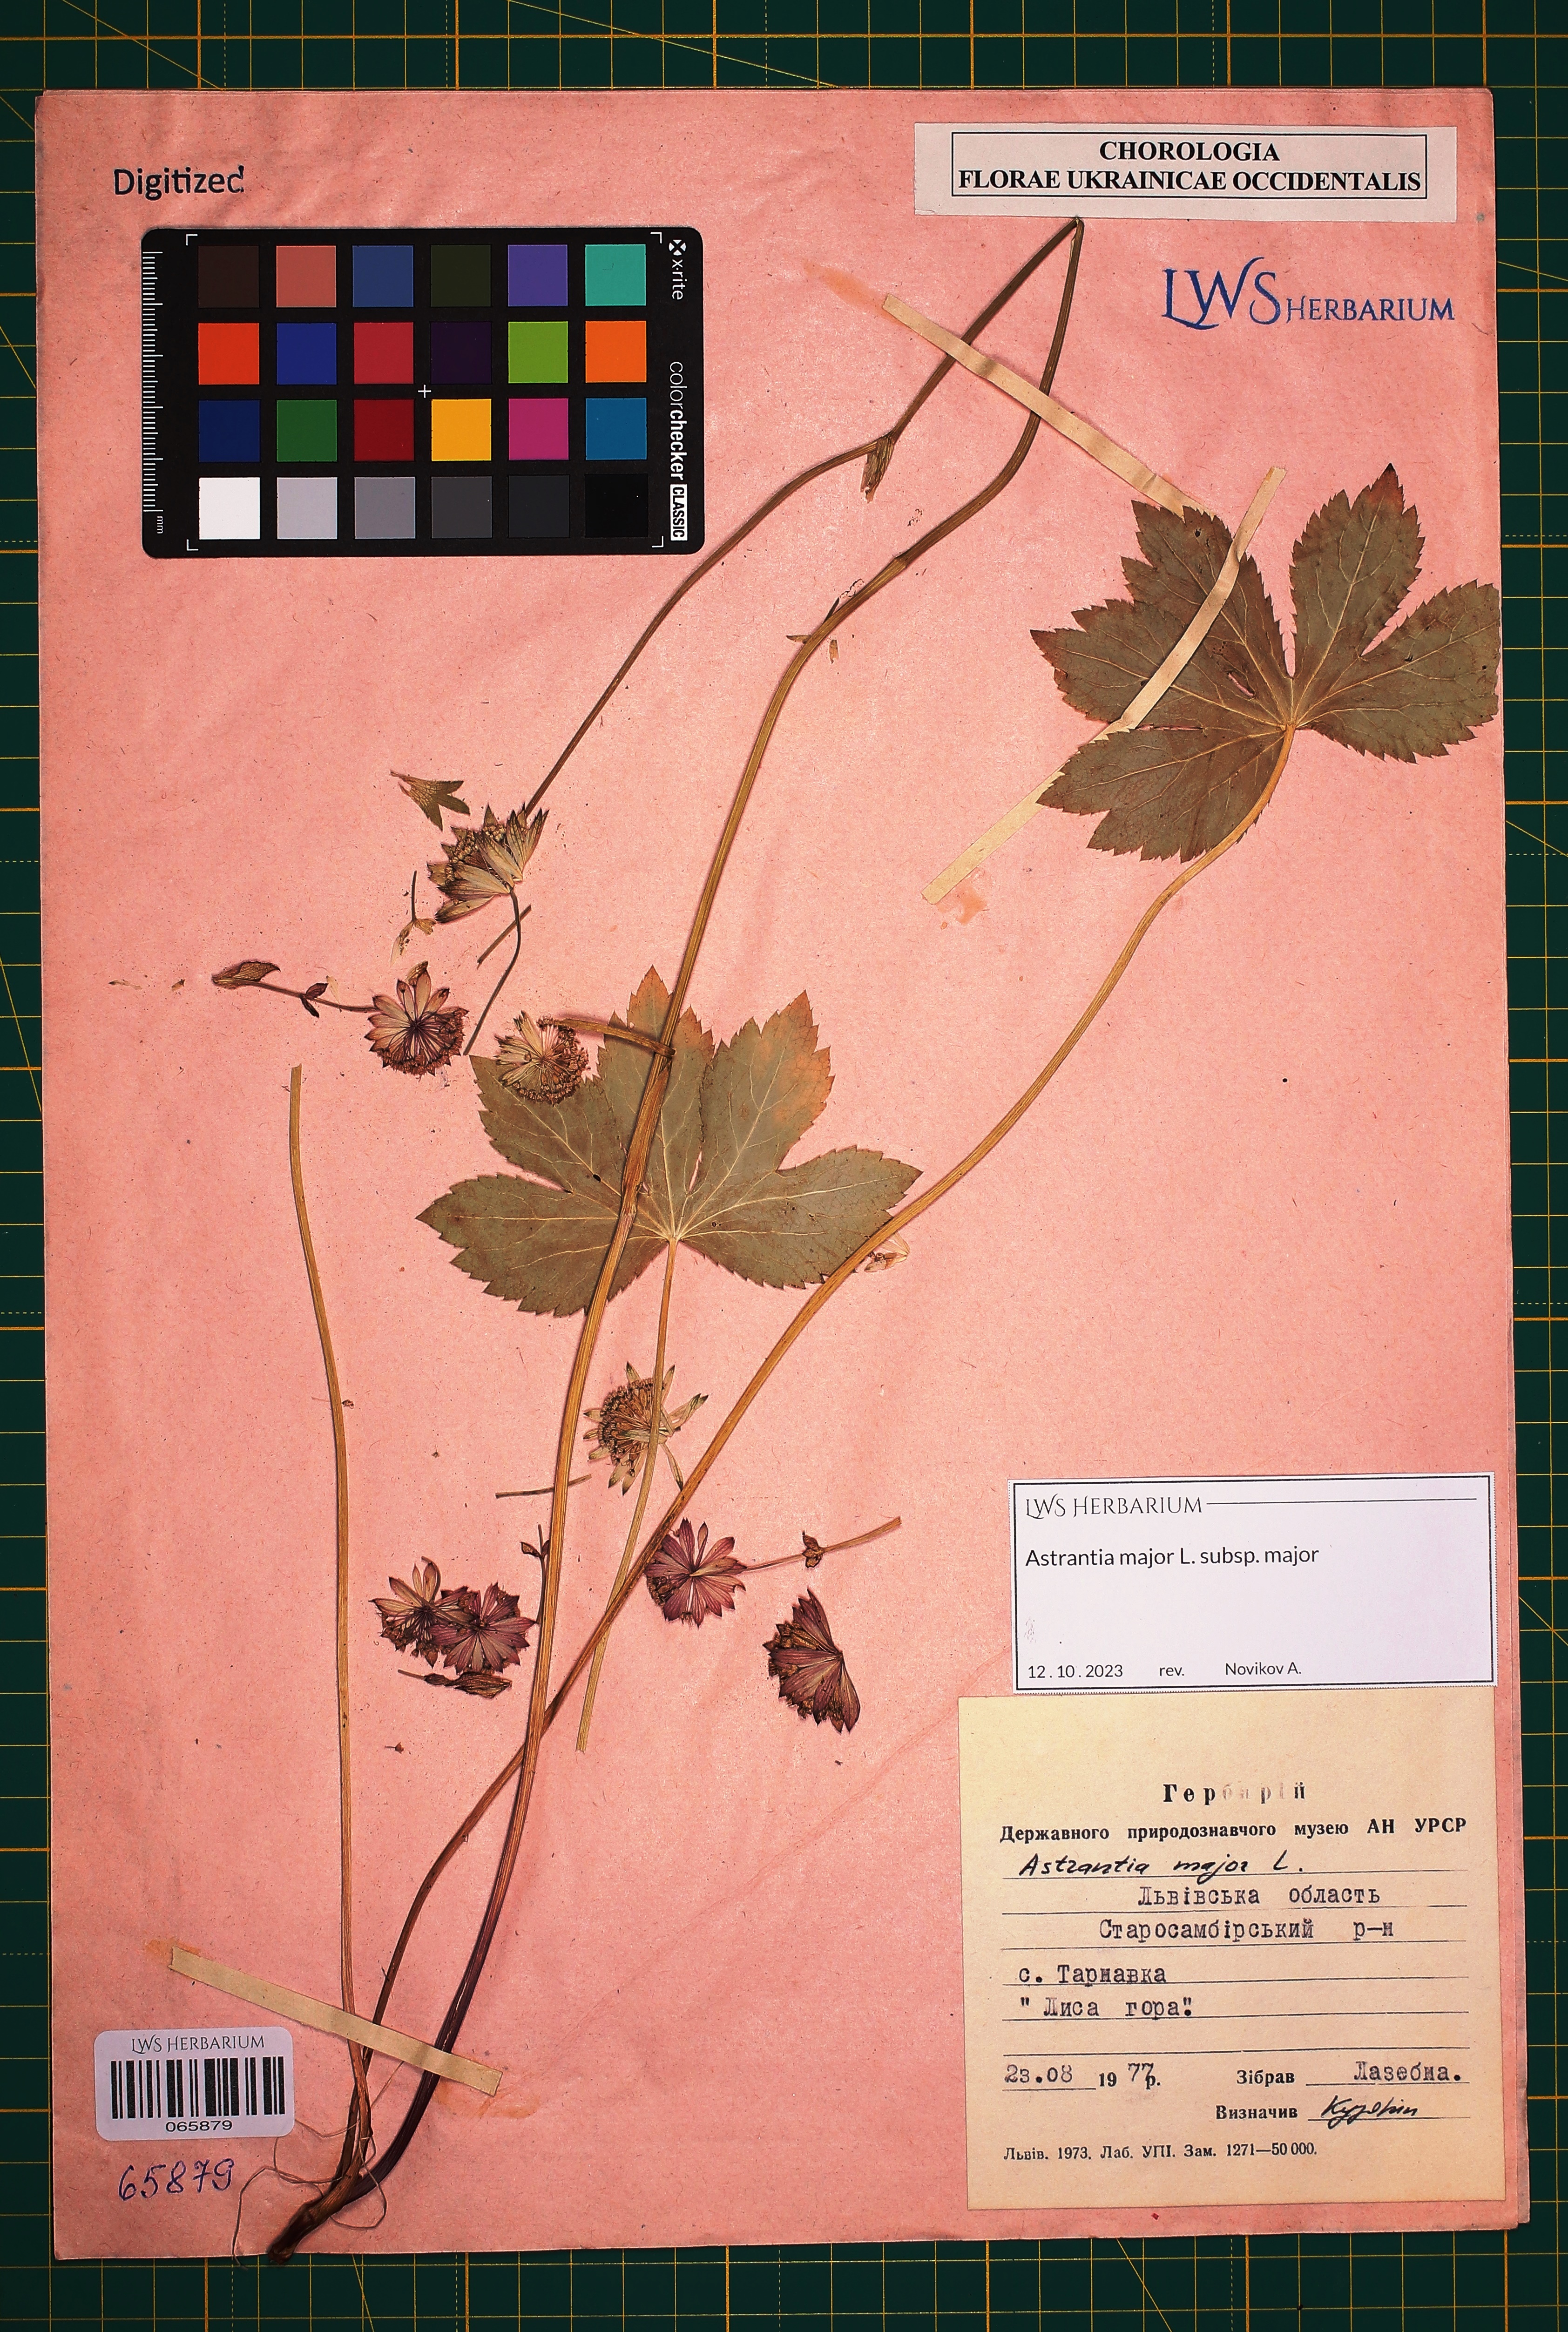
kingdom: Plantae
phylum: Tracheophyta
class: Magnoliopsida
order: Apiales
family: Apiaceae
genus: Astrantia
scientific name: Astrantia major
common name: Greater masterwort
